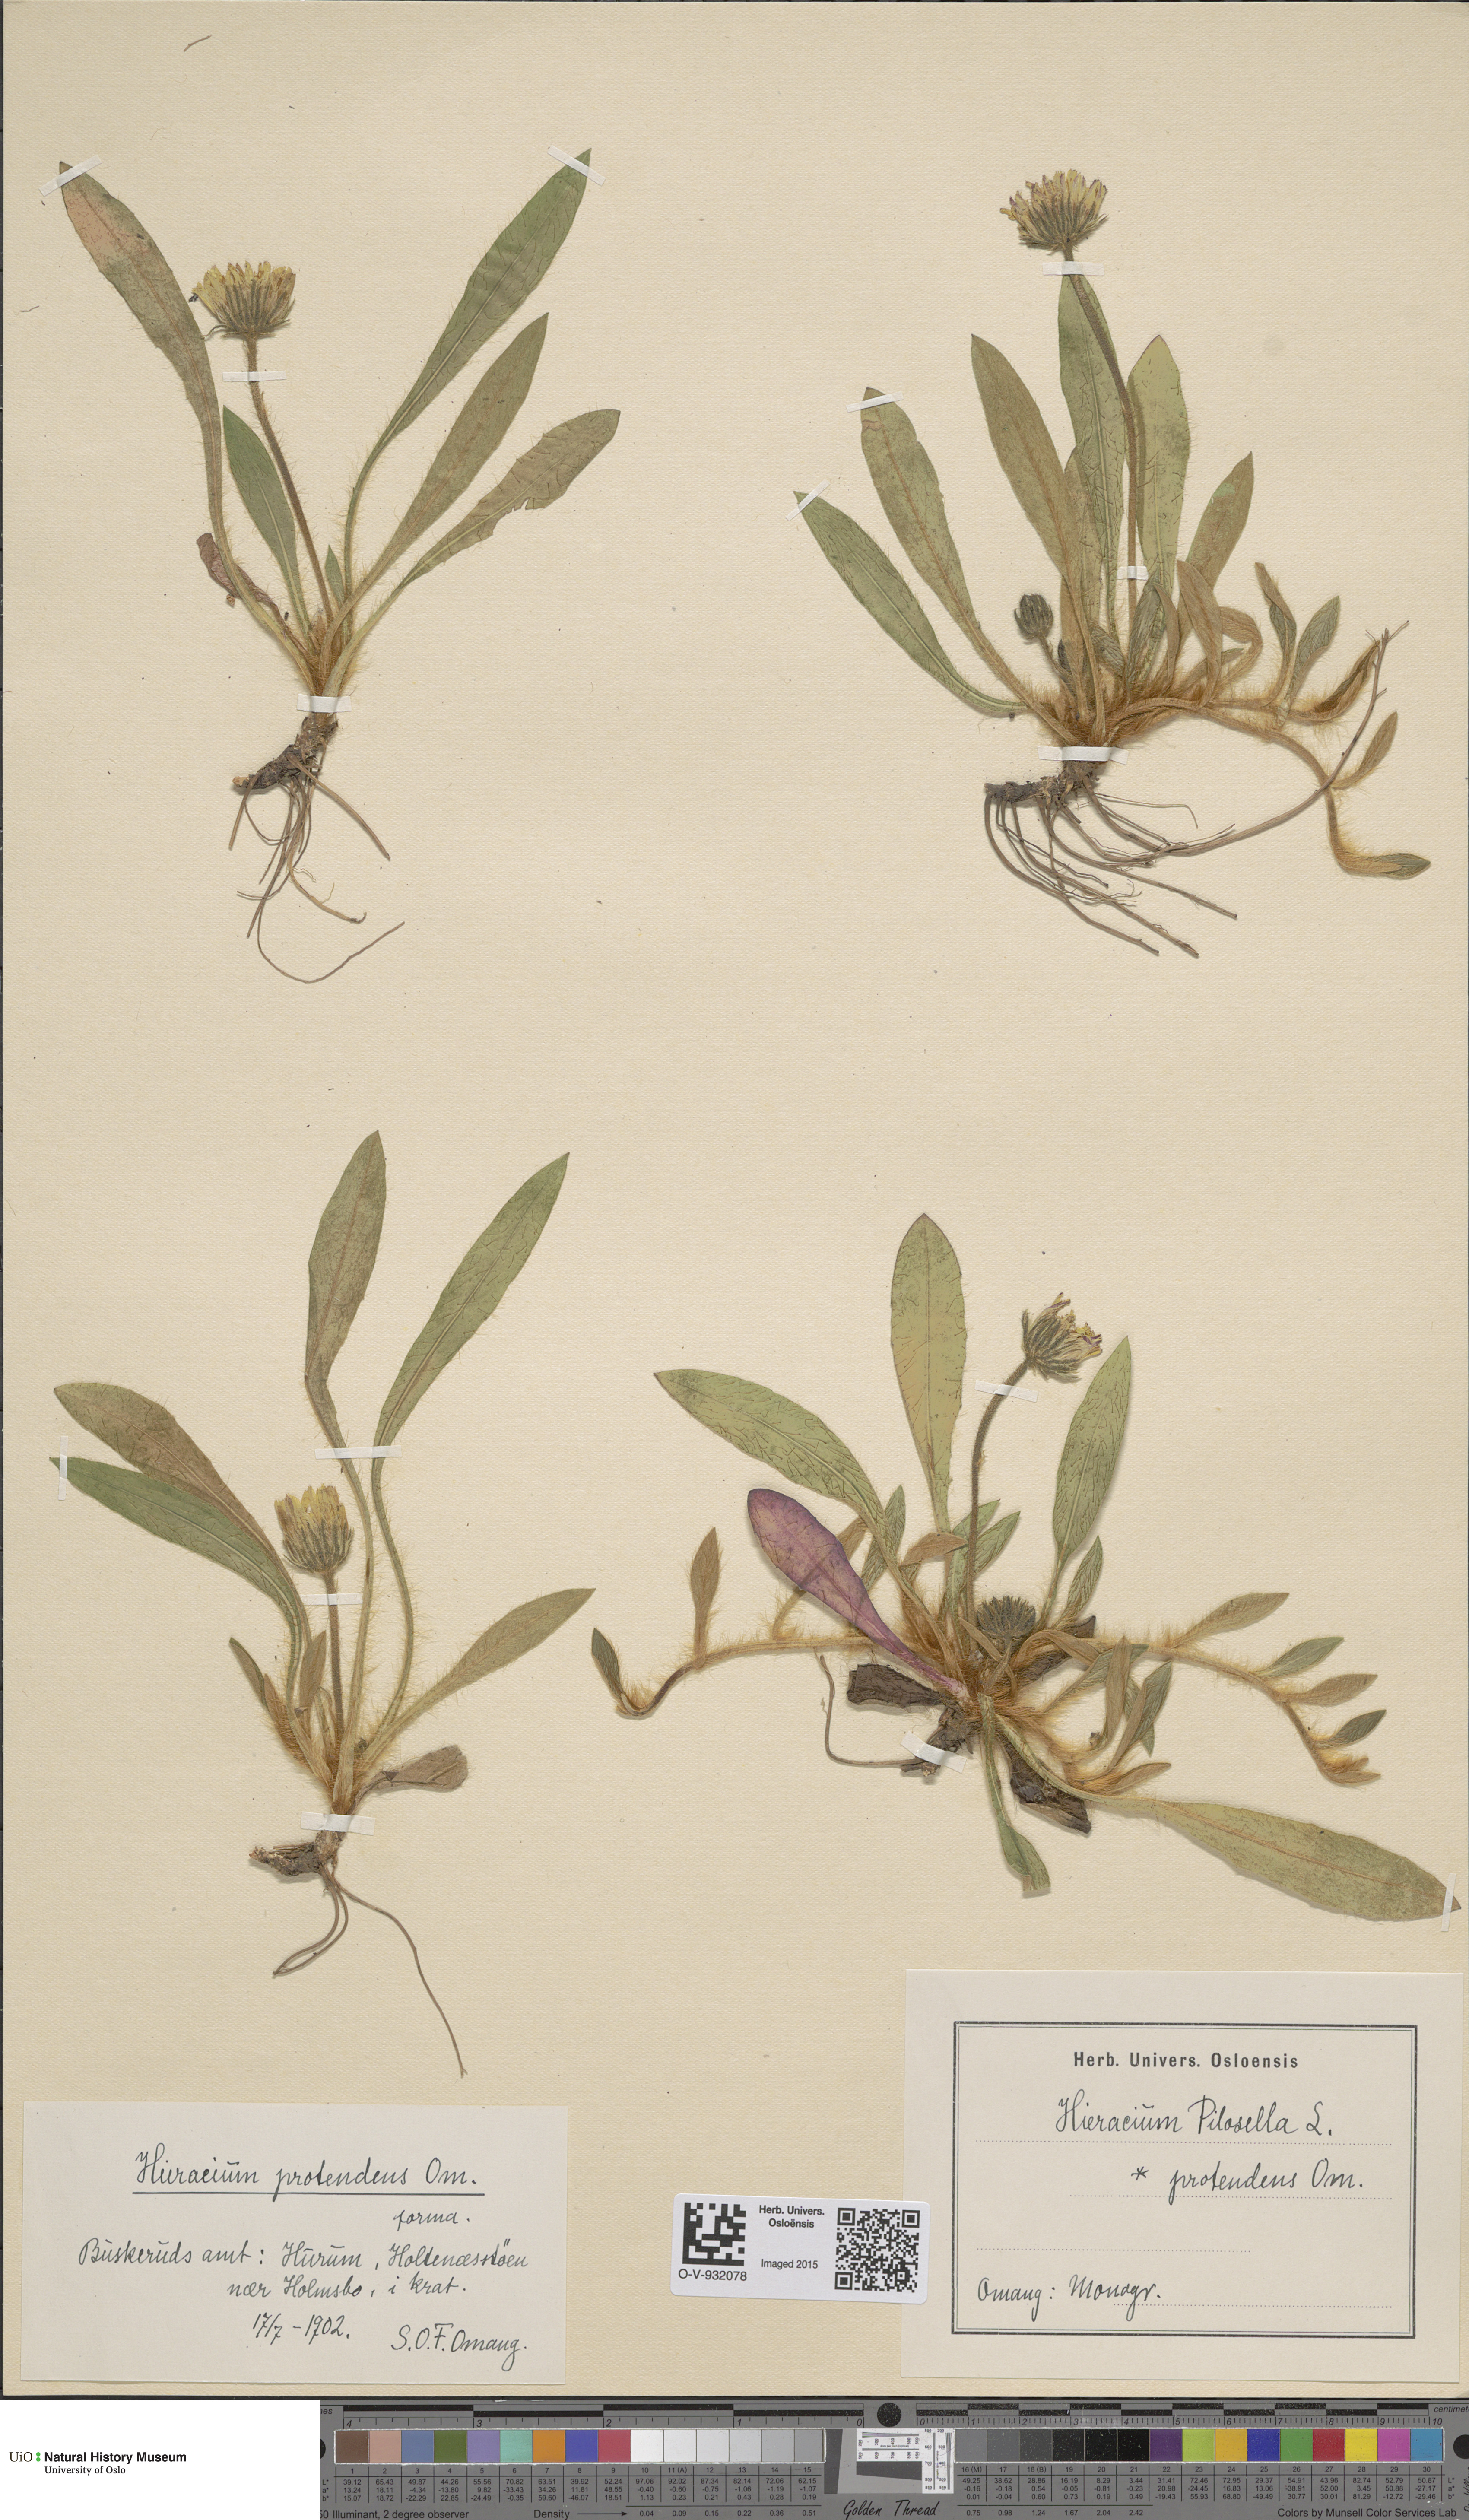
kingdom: Plantae
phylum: Tracheophyta
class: Magnoliopsida
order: Asterales
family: Asteraceae
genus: Pilosella
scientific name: Pilosella officinarum
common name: Mouse-ear hawkweed
